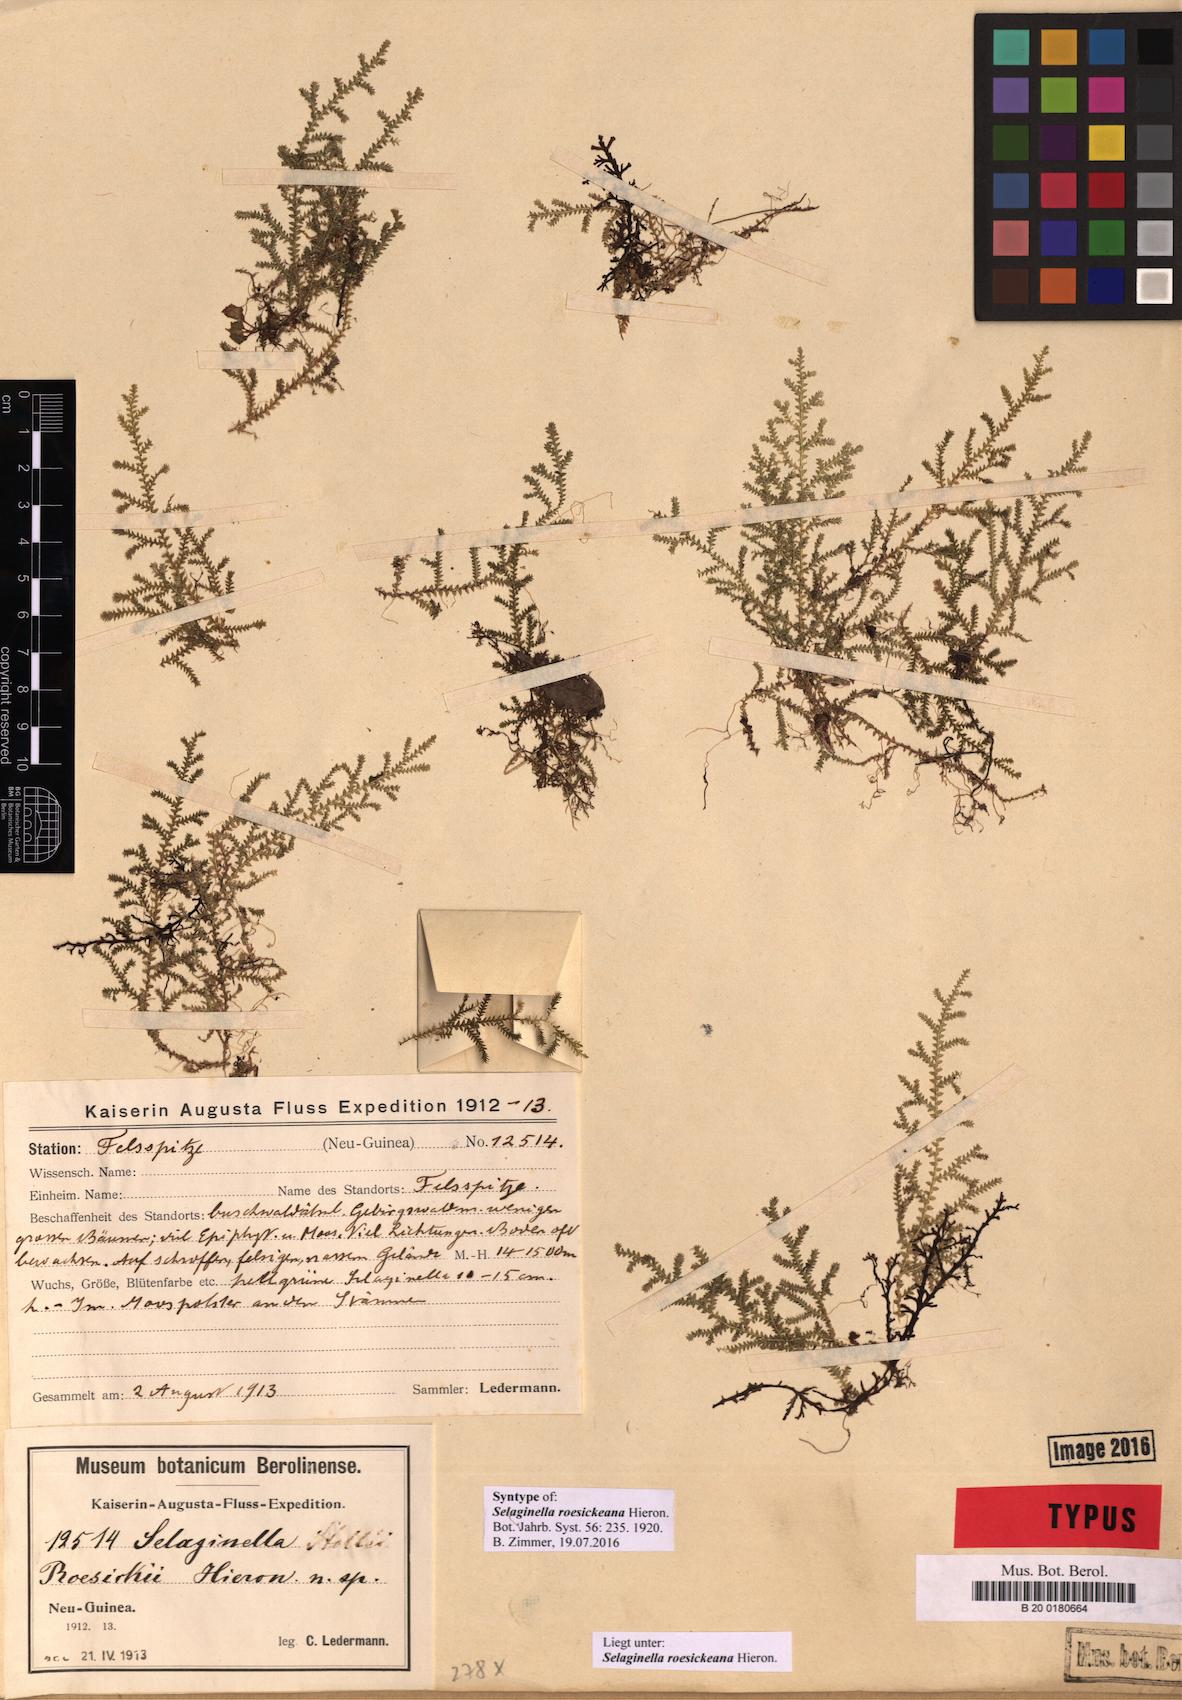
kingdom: Plantae
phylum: Tracheophyta
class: Lycopodiopsida
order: Selaginellales
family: Selaginellaceae
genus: Selaginella
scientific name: Selaginella roesickeana
